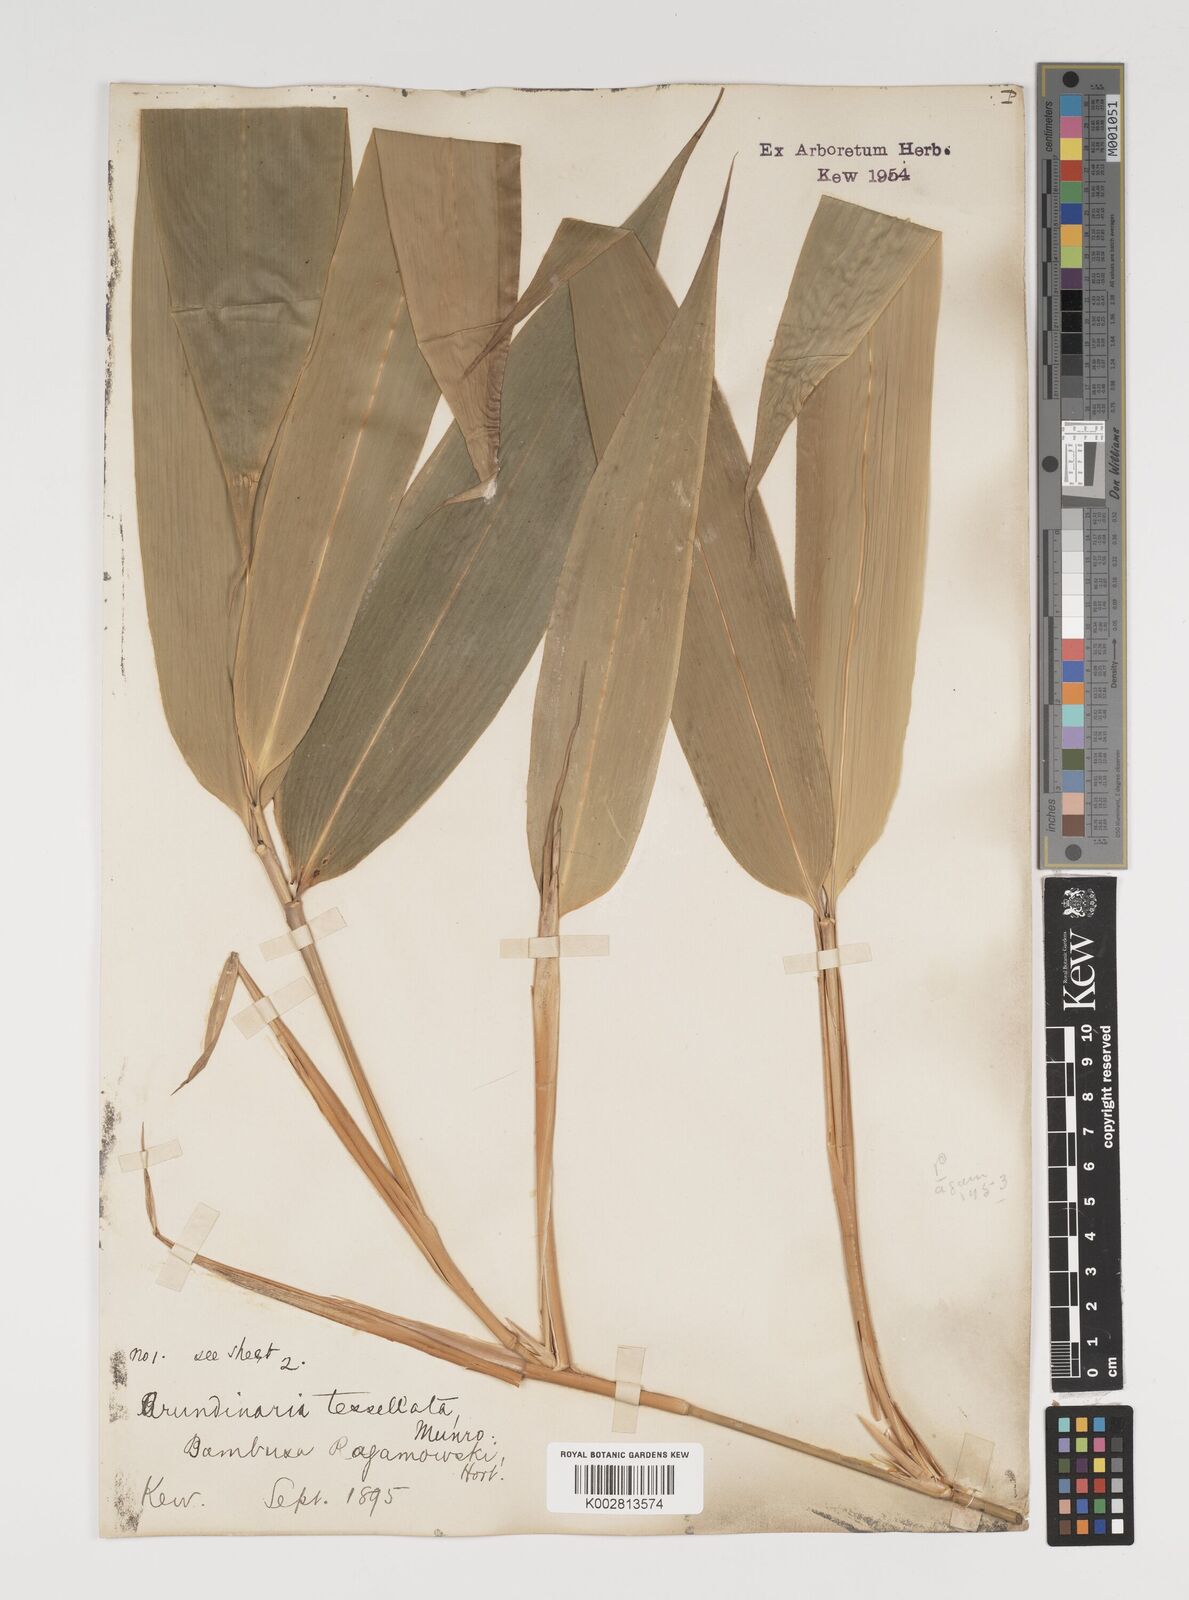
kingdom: Plantae
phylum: Tracheophyta
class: Liliopsida
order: Poales
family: Poaceae
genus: Indocalamus
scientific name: Indocalamus tessellatus
